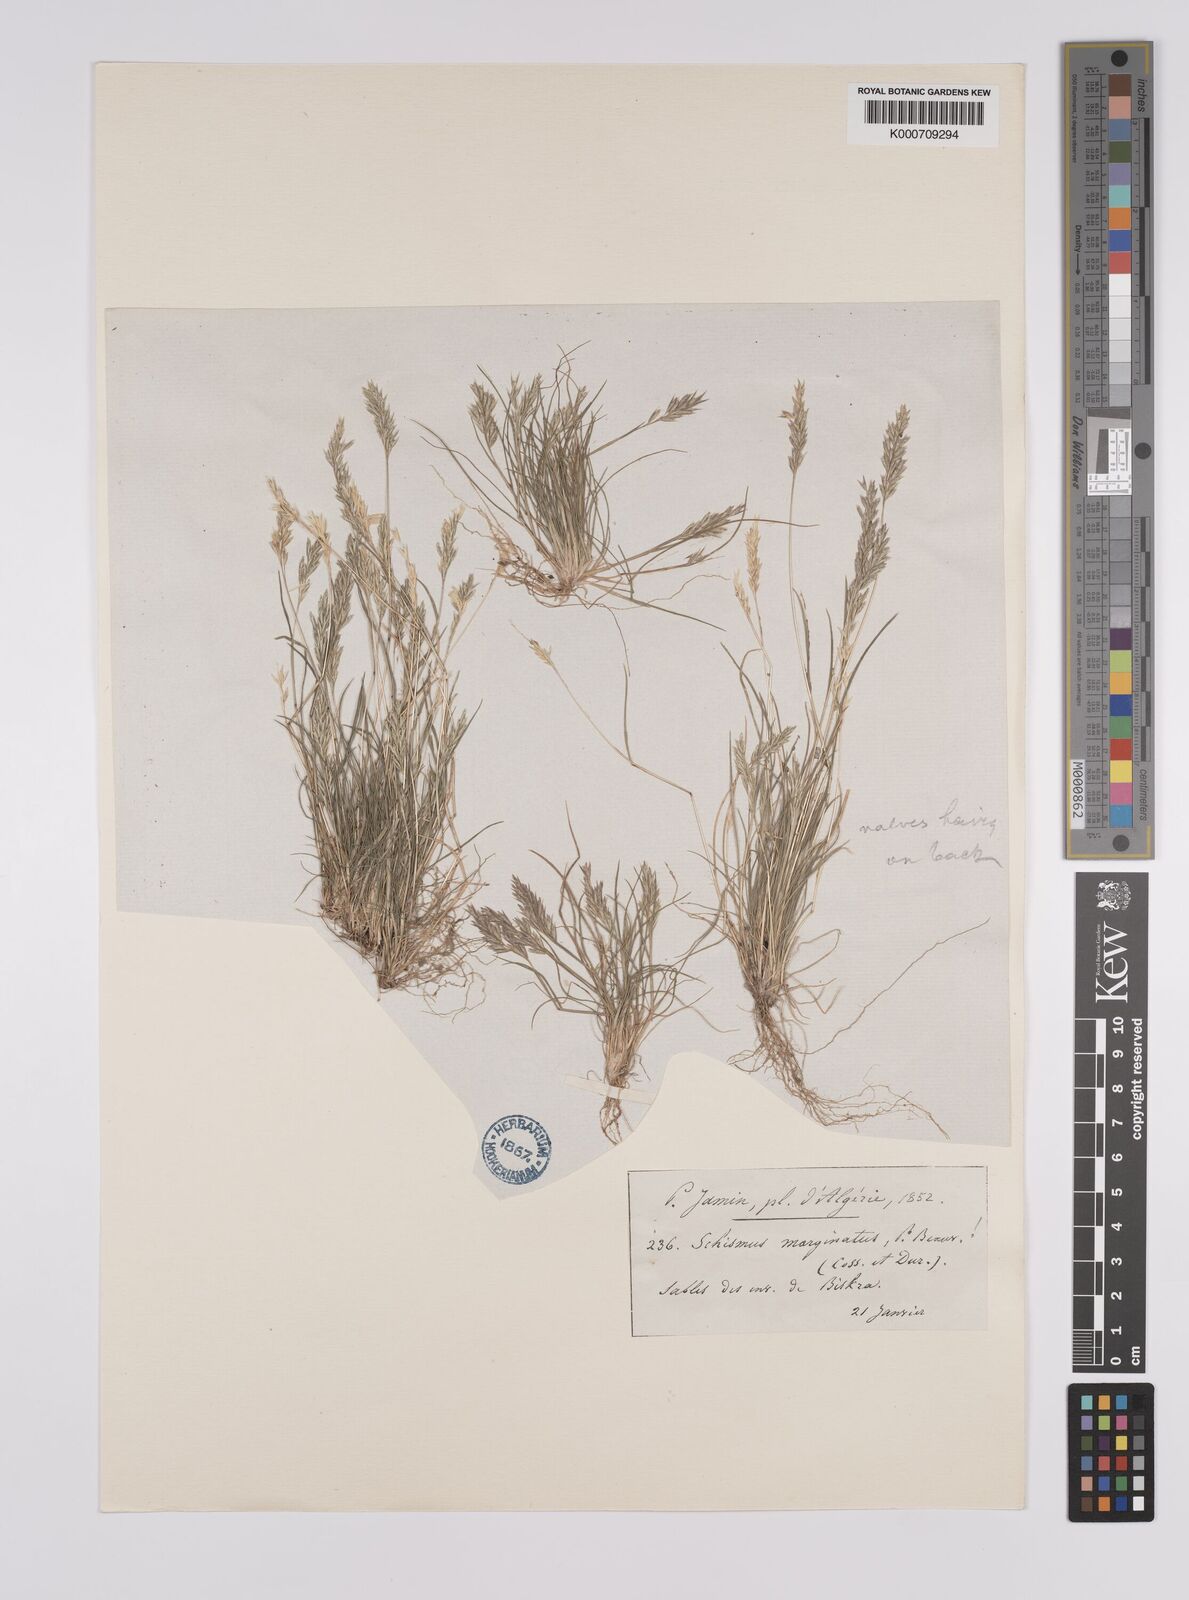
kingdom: Plantae
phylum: Tracheophyta
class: Liliopsida
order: Poales
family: Poaceae
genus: Schismus
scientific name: Schismus barbatus
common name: Kelch-grass
